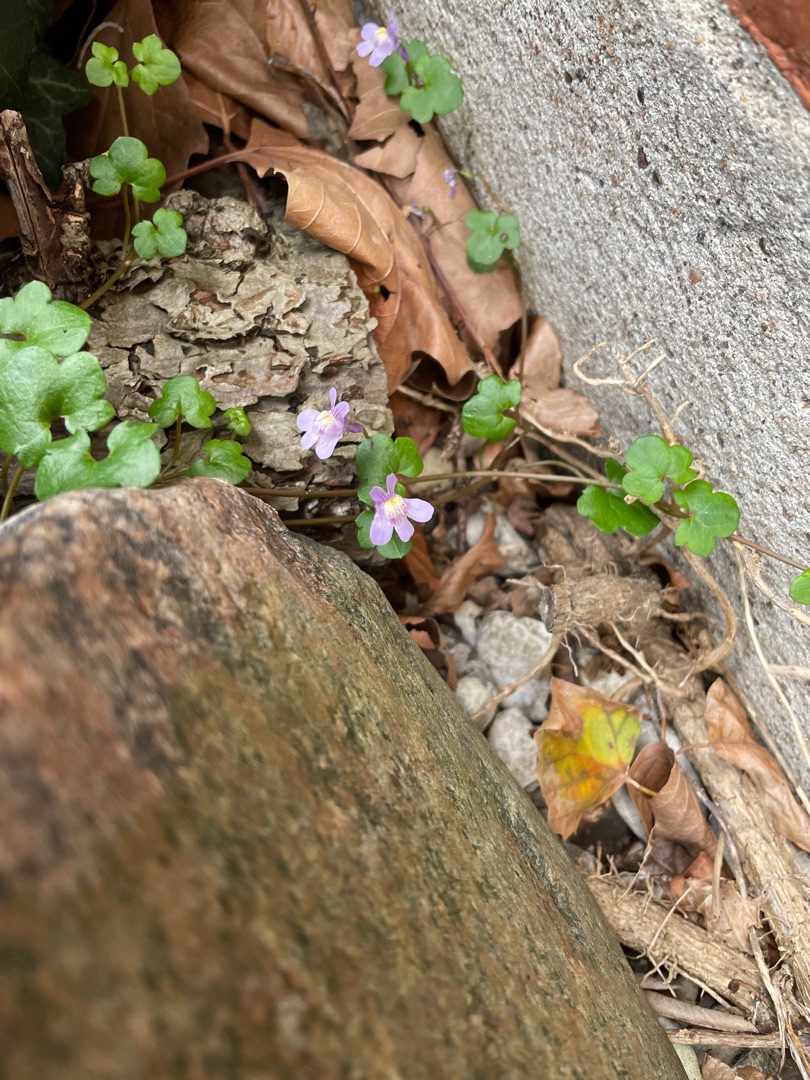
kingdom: Plantae
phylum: Tracheophyta
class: Magnoliopsida
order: Lamiales
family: Plantaginaceae
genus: Cymbalaria
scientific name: Cymbalaria muralis
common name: Vedbend-torskemund
